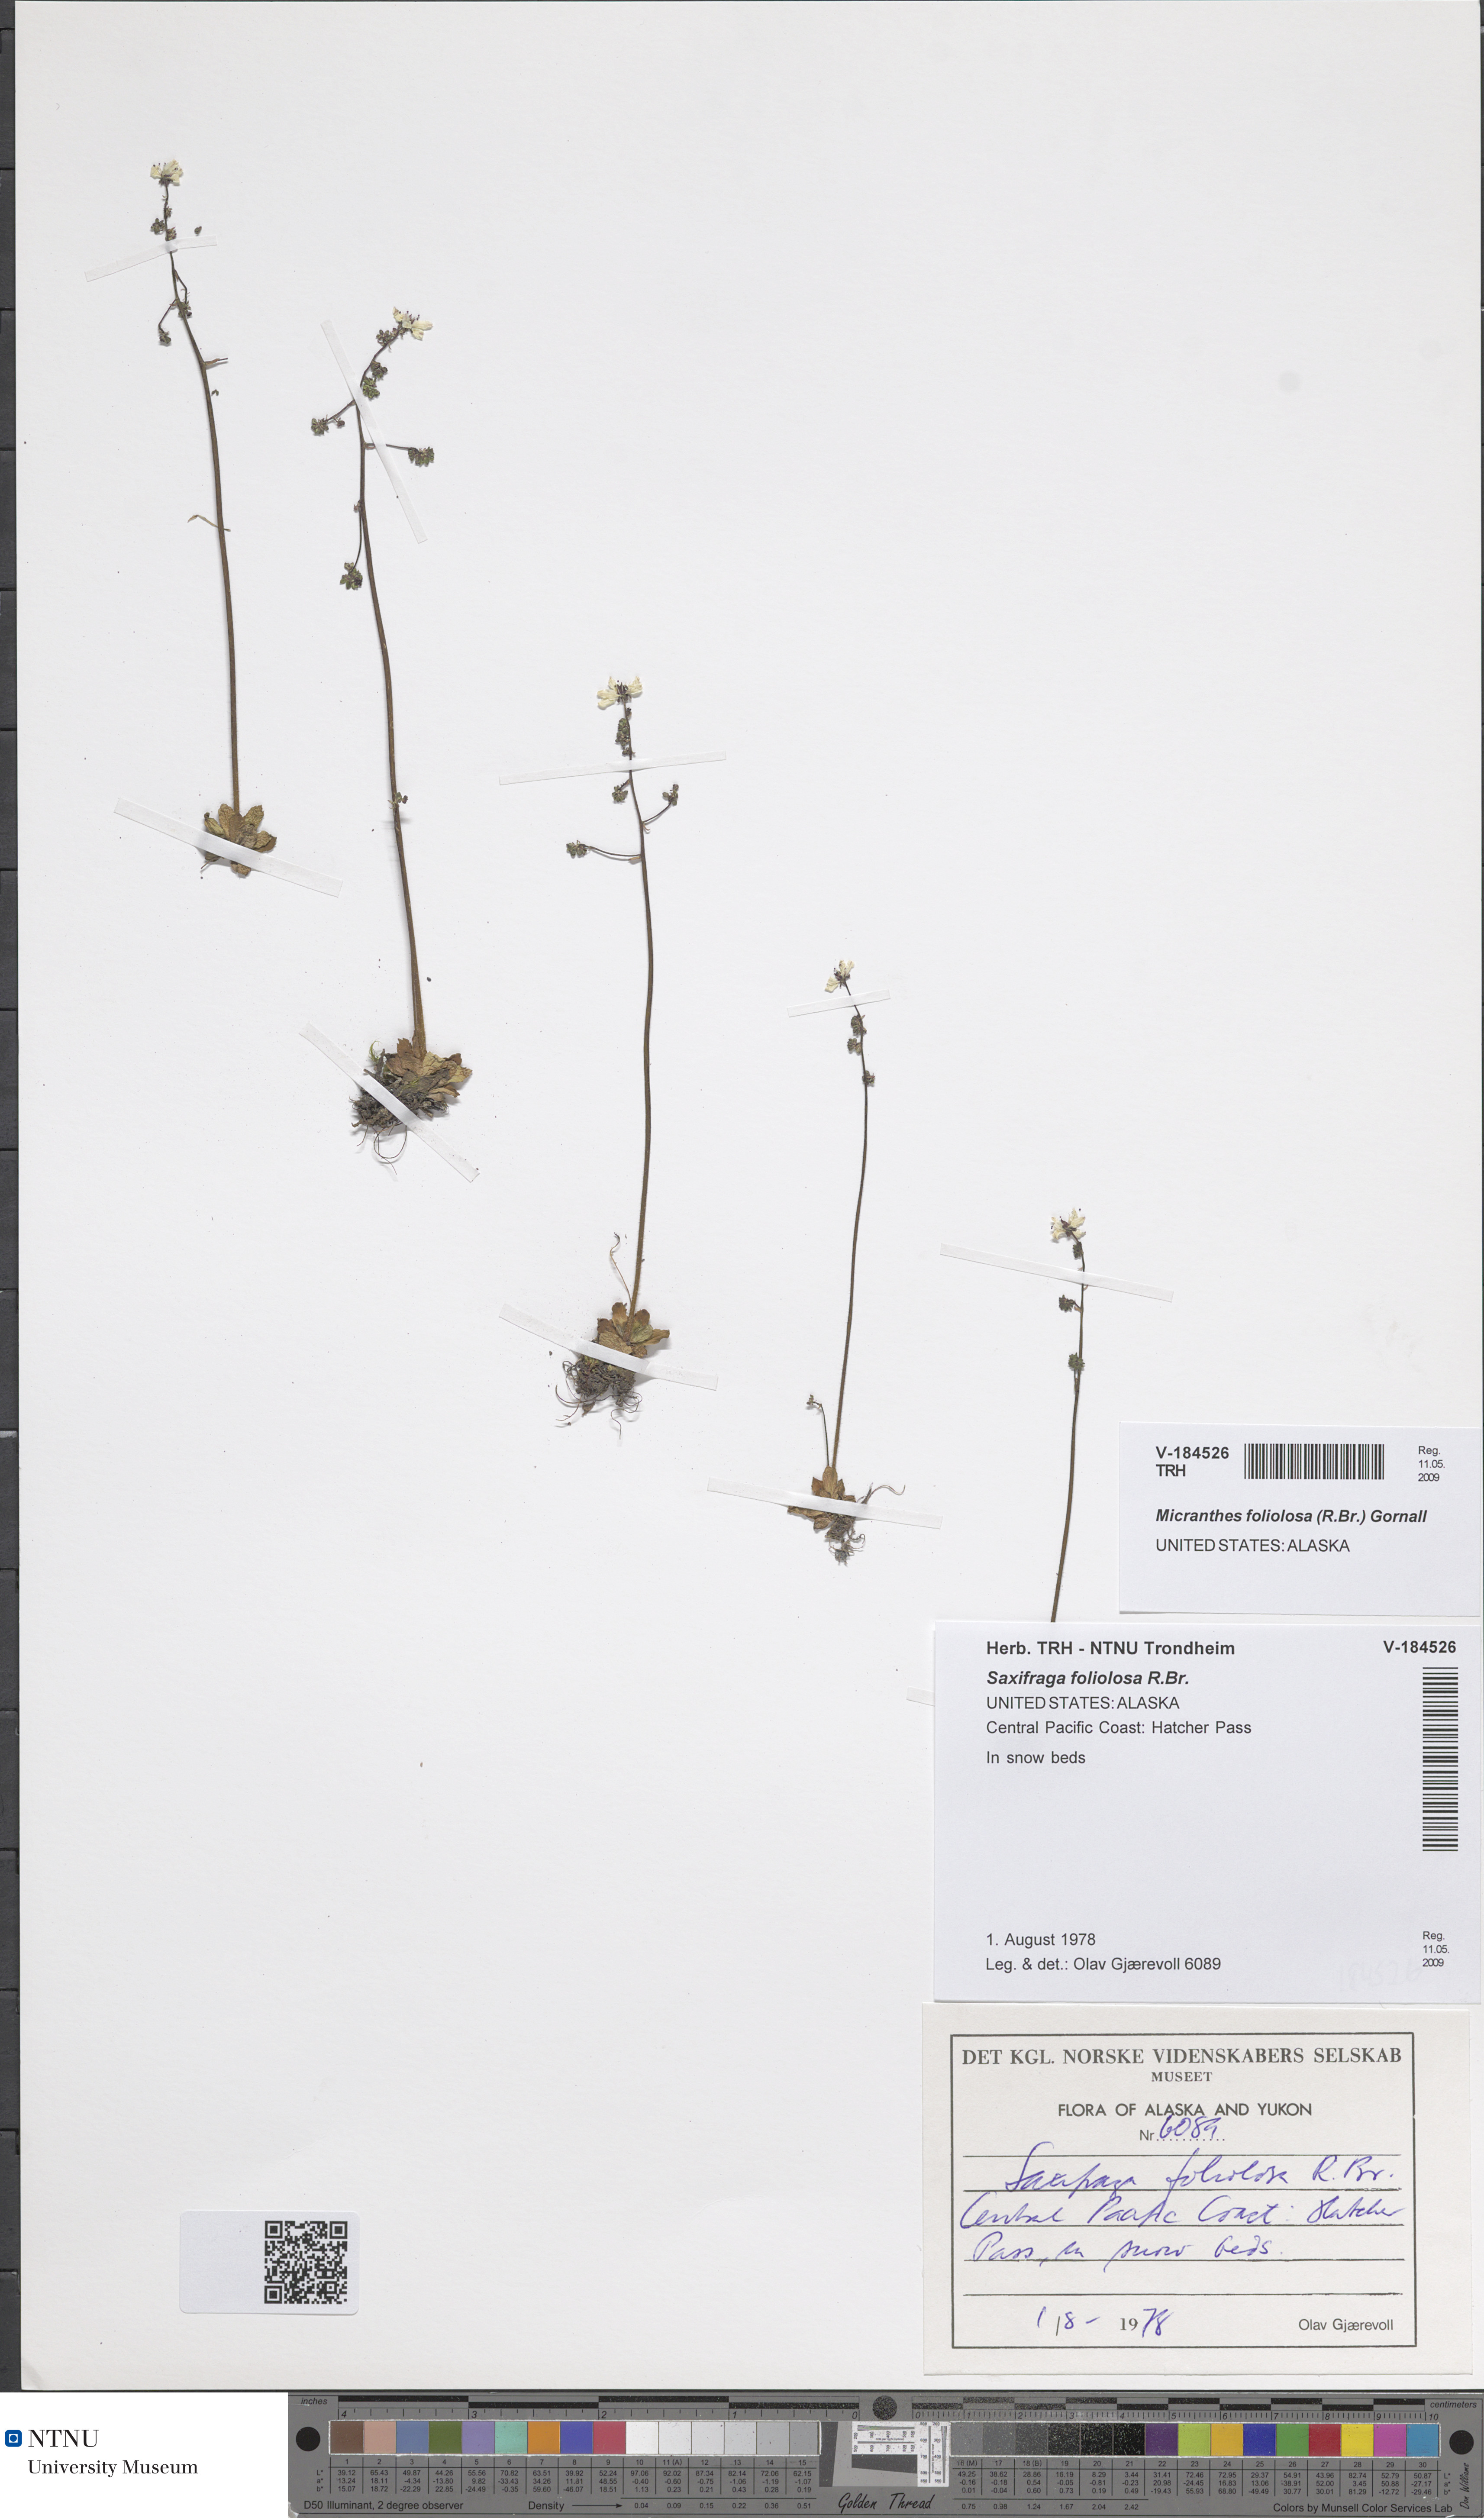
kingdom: Plantae
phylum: Tracheophyta
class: Magnoliopsida
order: Saxifragales
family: Saxifragaceae
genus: Micranthes
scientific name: Micranthes foliolosa
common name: Leafystem saxifrage
